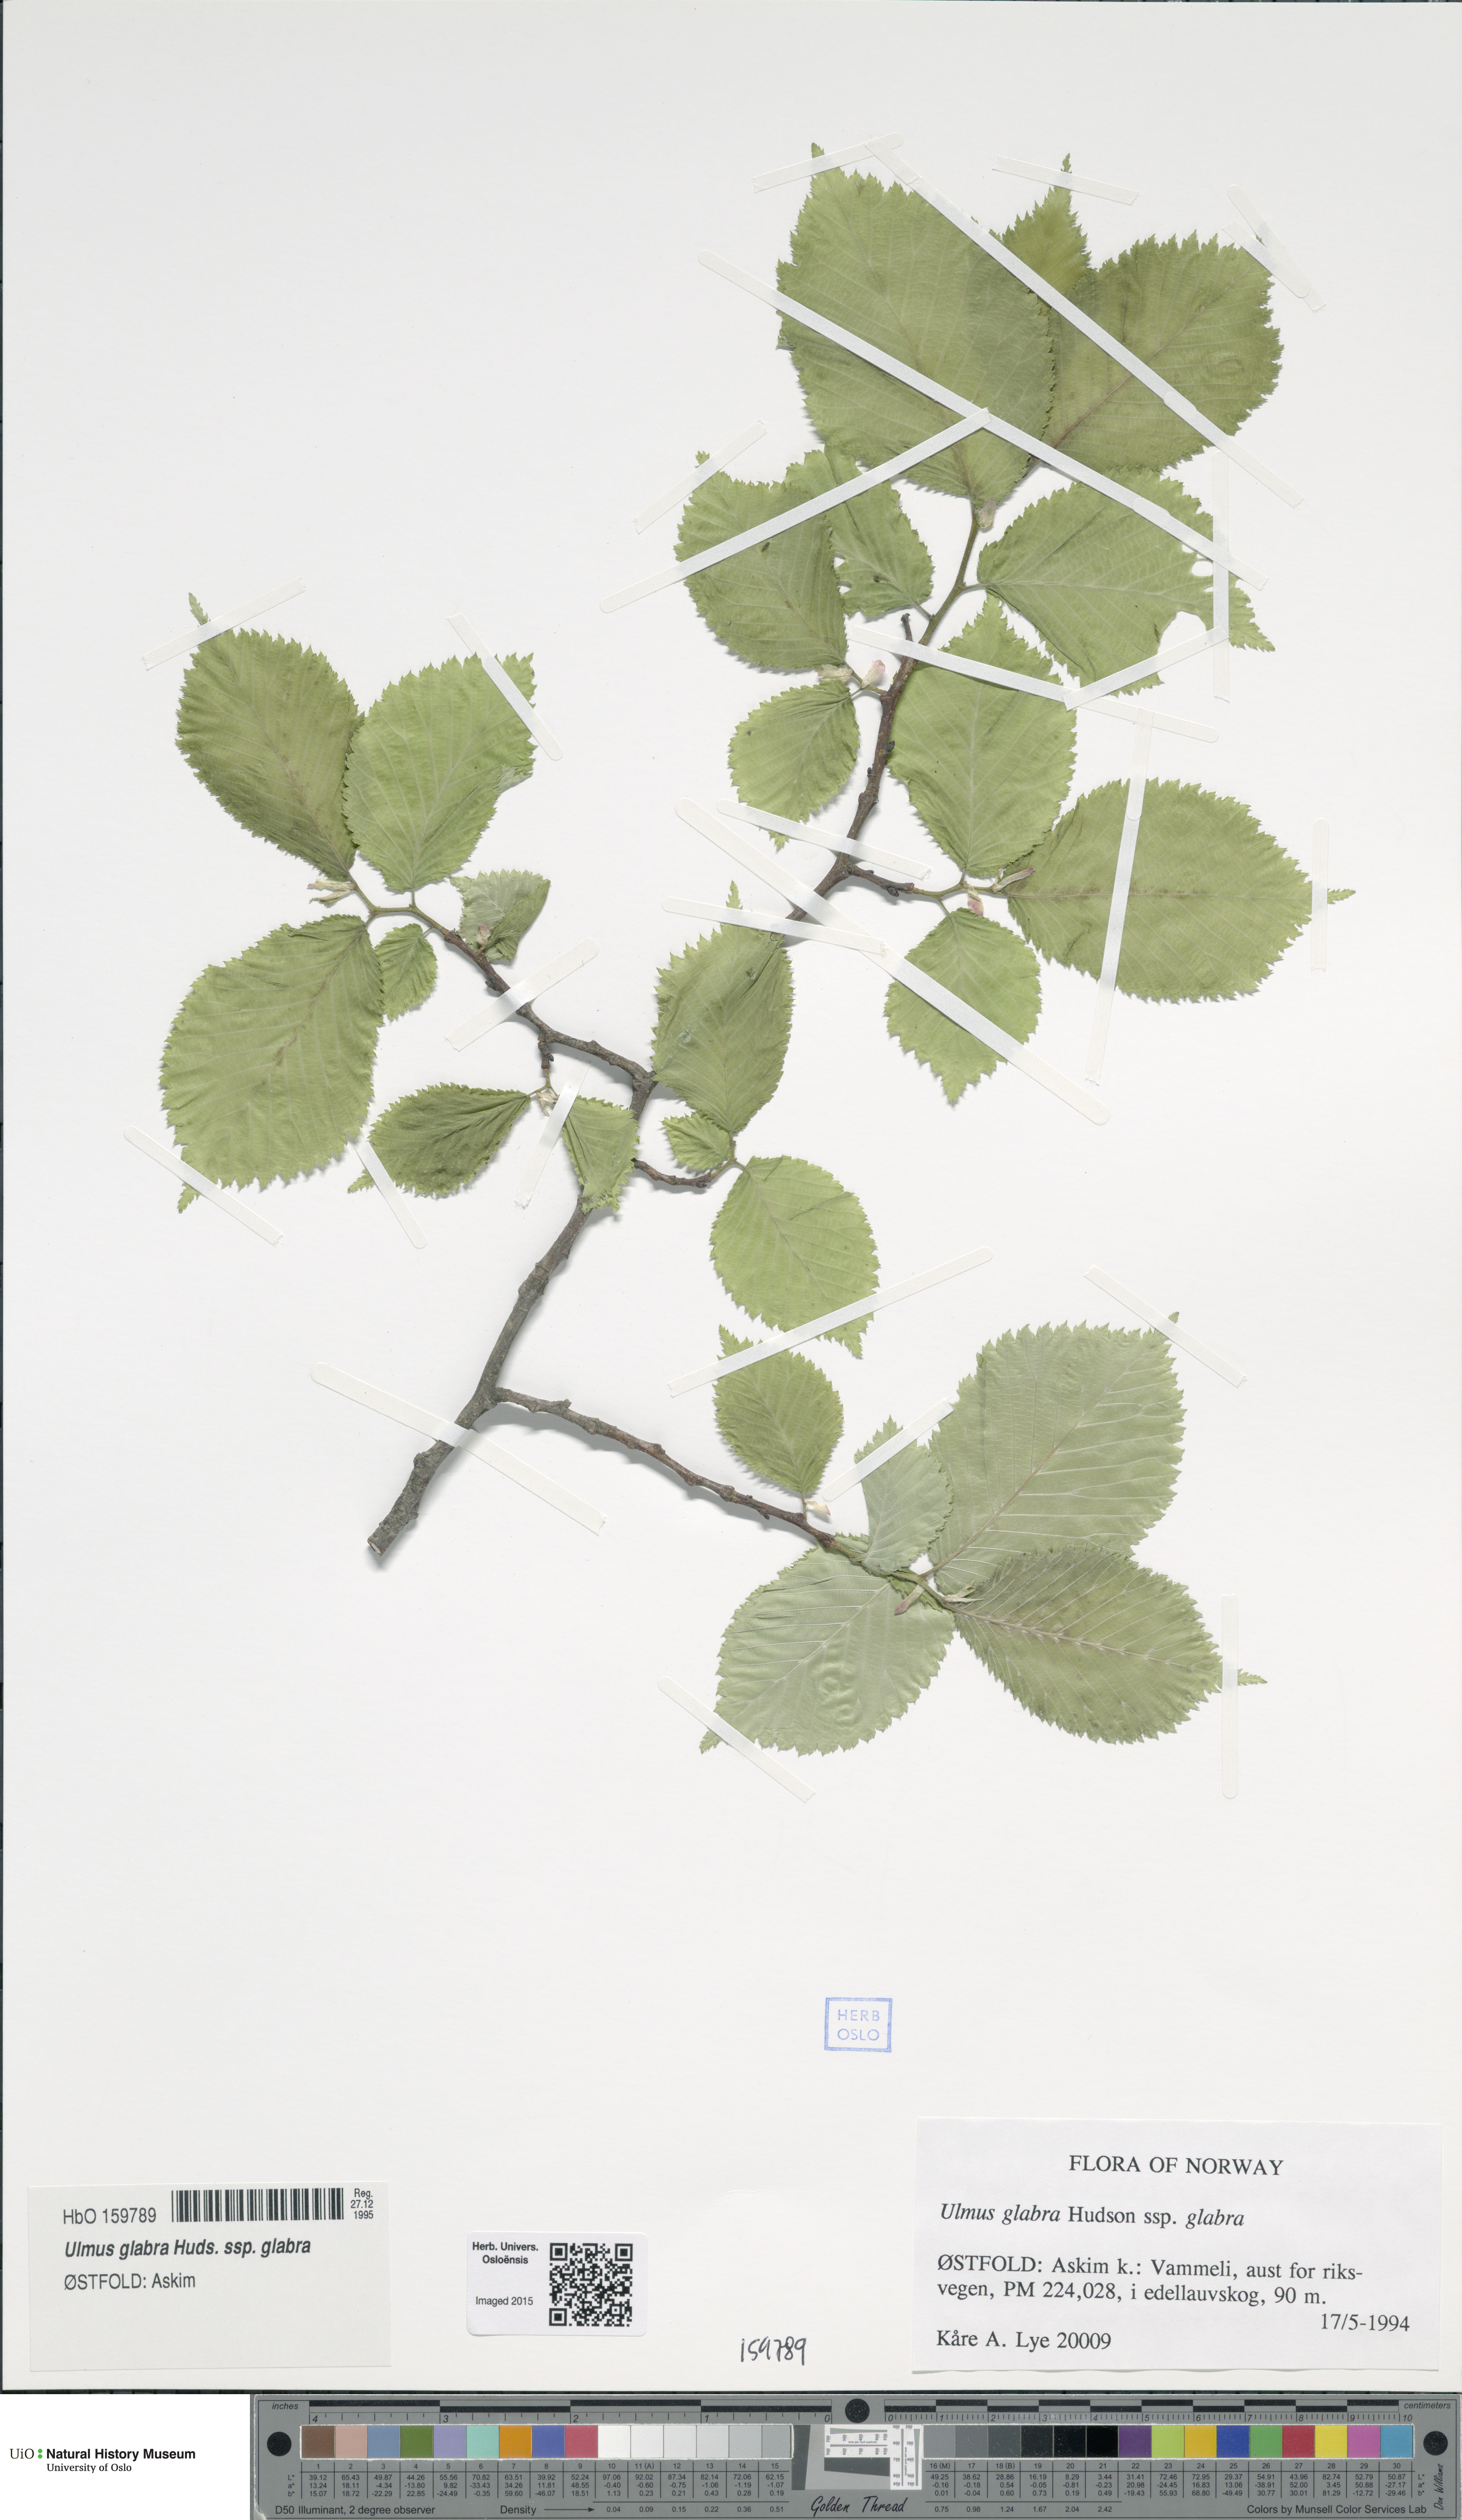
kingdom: Plantae
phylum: Tracheophyta
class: Magnoliopsida
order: Rosales
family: Ulmaceae
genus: Ulmus
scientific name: Ulmus glabra
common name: Wych elm
